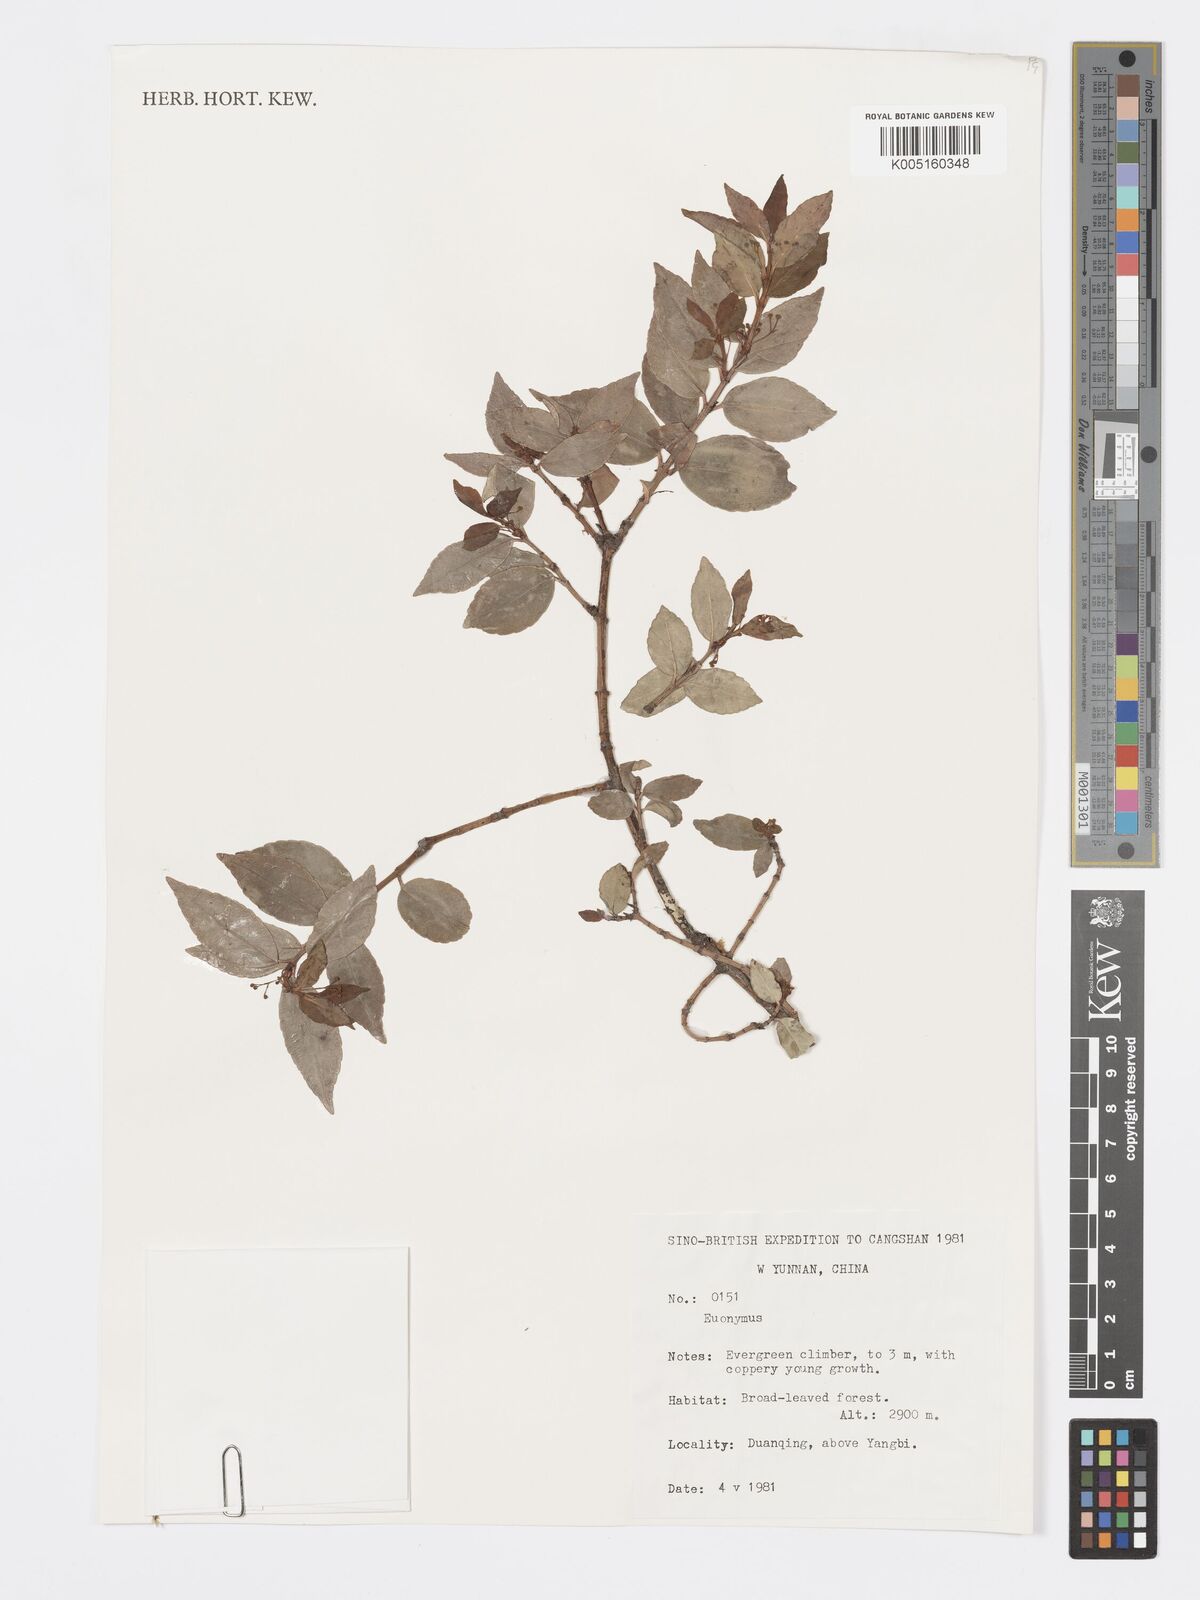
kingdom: Plantae
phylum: Tracheophyta
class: Magnoliopsida
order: Celastrales
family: Celastraceae
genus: Euonymus
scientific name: Euonymus
